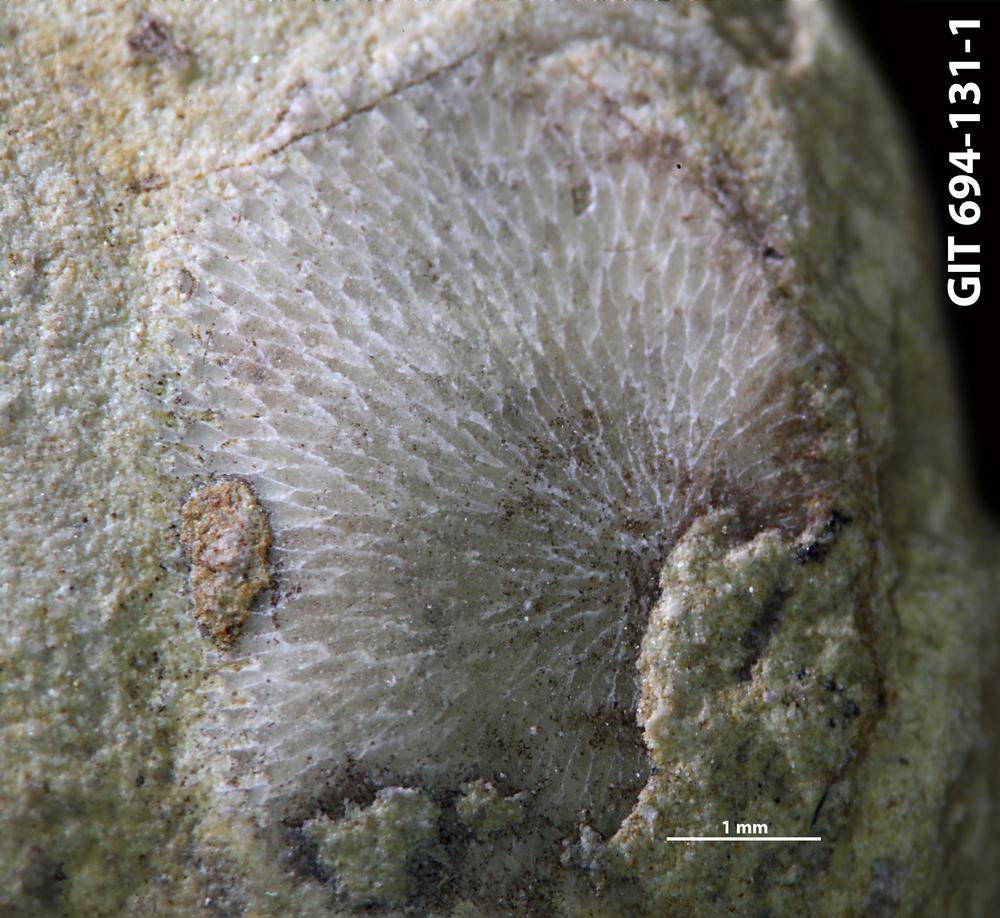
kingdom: Animalia
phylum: Bryozoa
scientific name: Bryozoa
